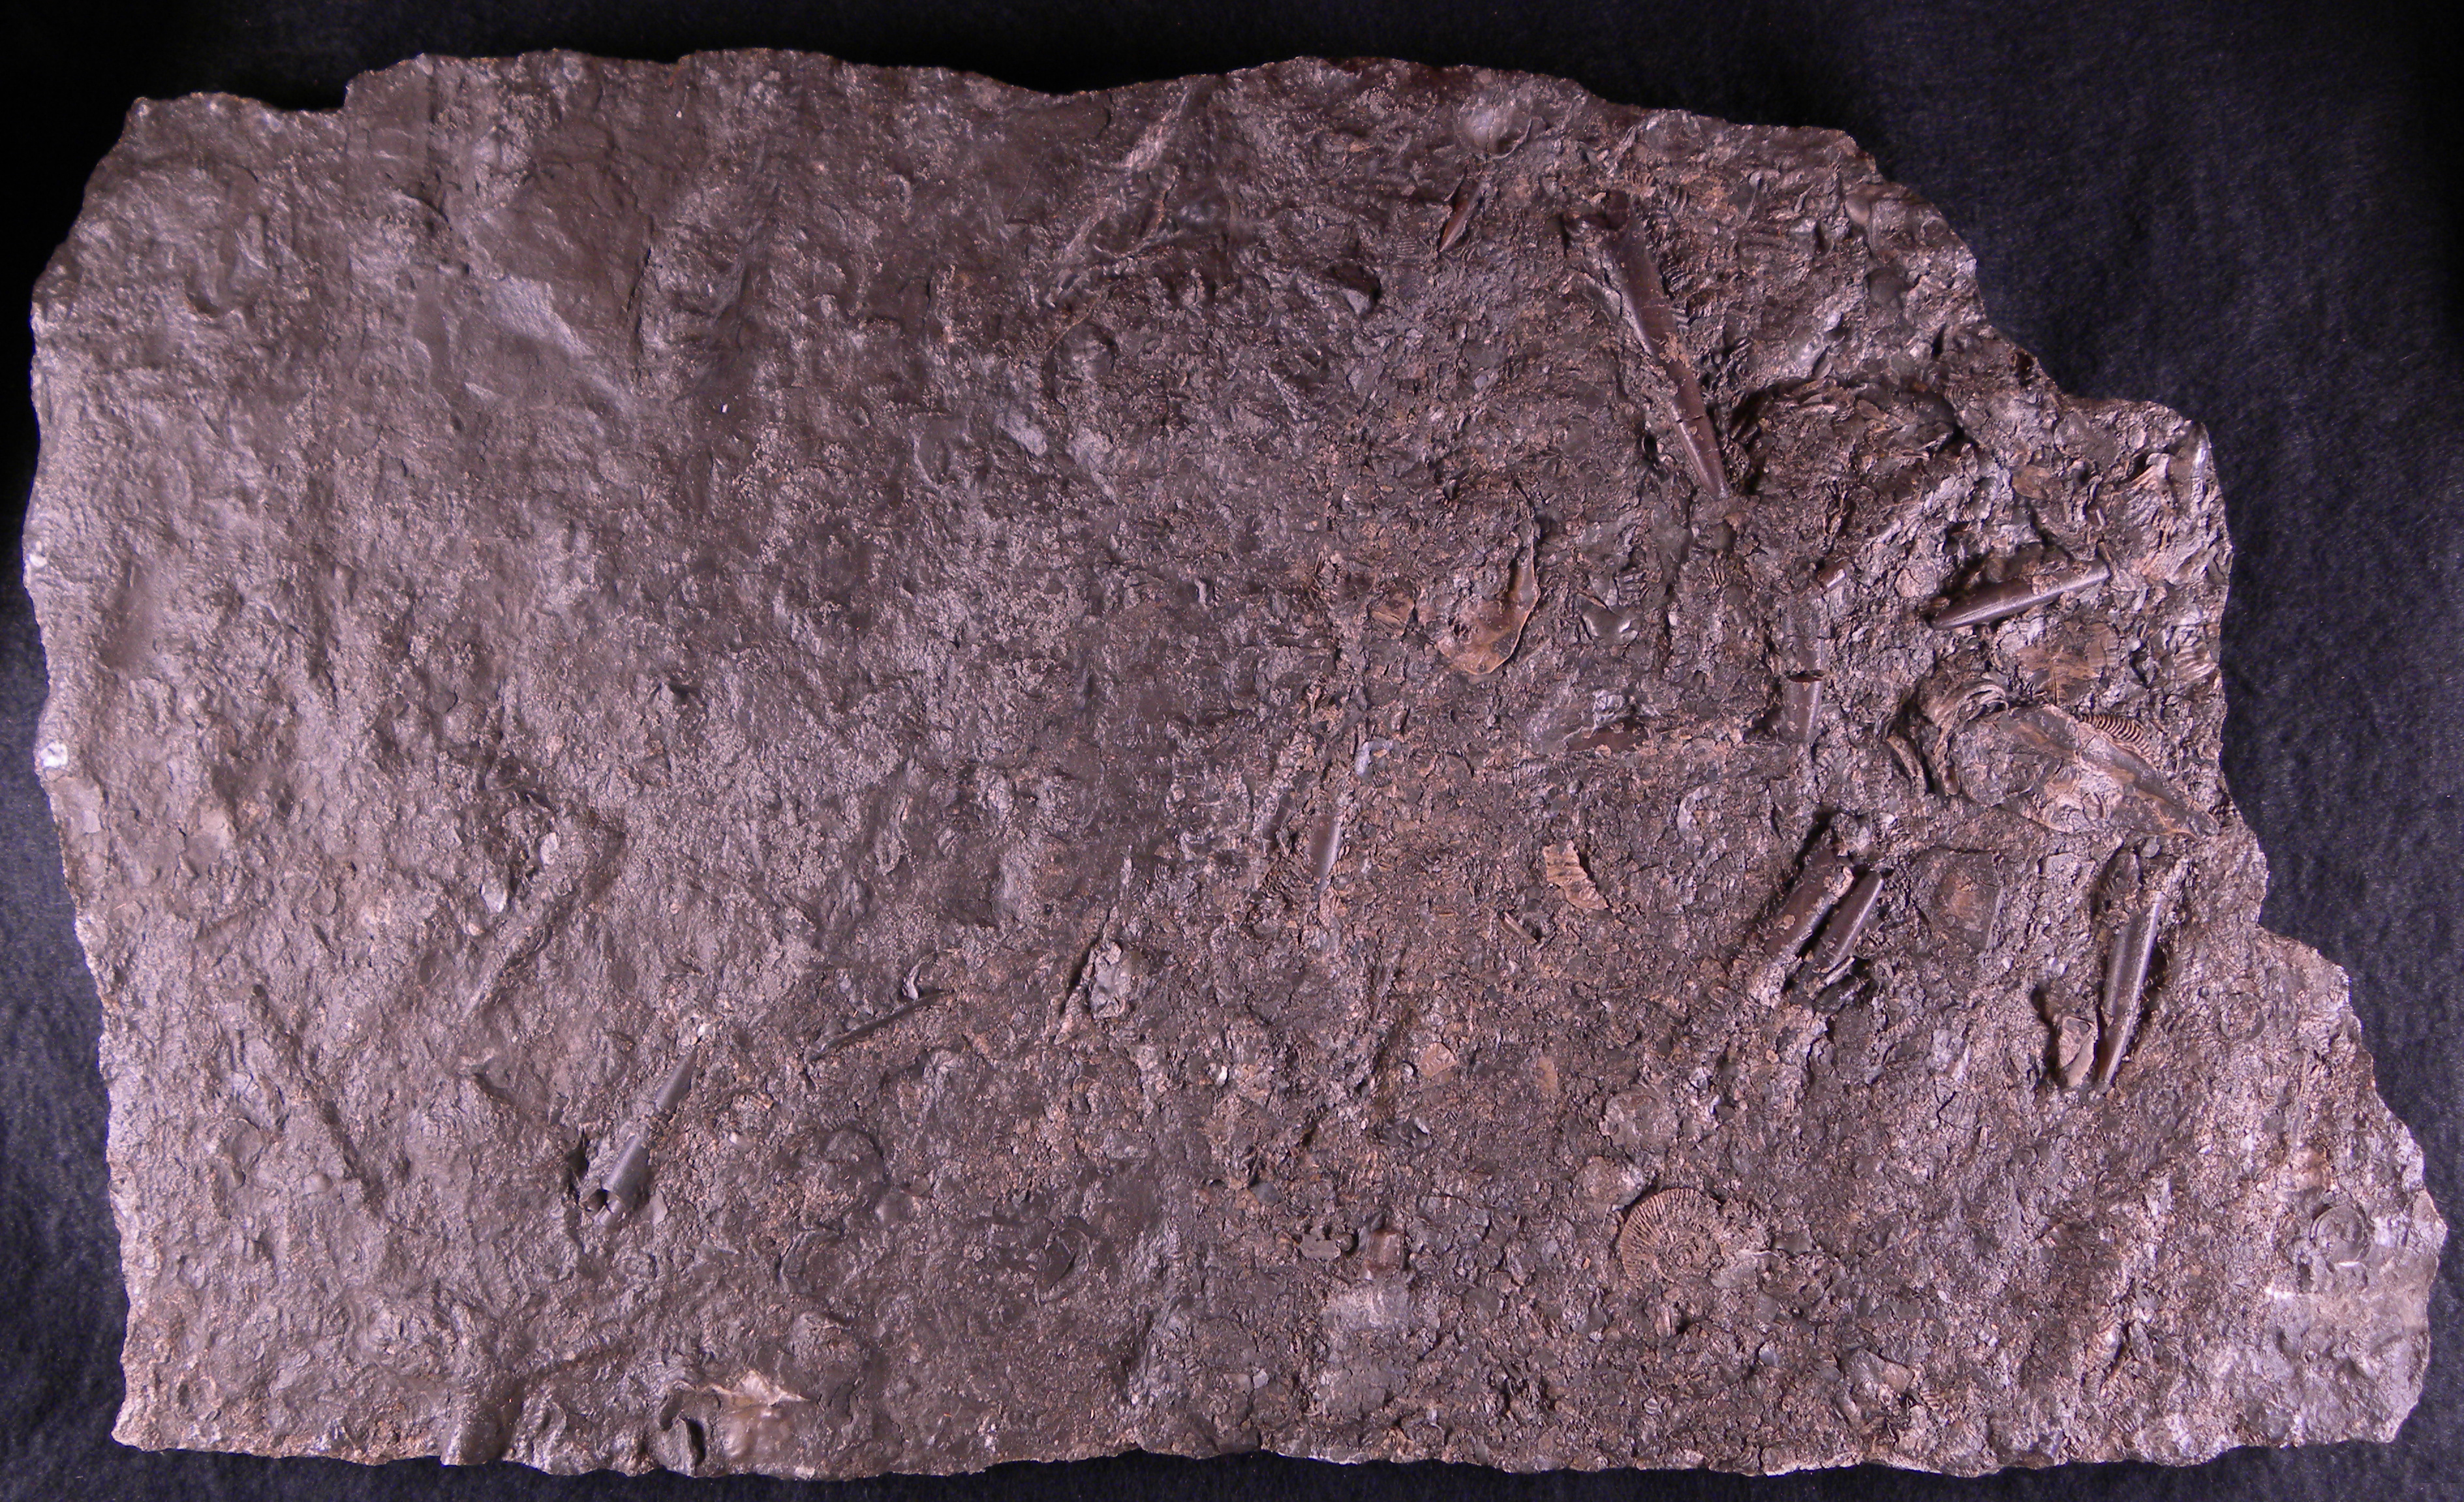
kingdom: Animalia
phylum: Mollusca
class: Cephalopoda
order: Belemnitida
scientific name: Belemnitida
